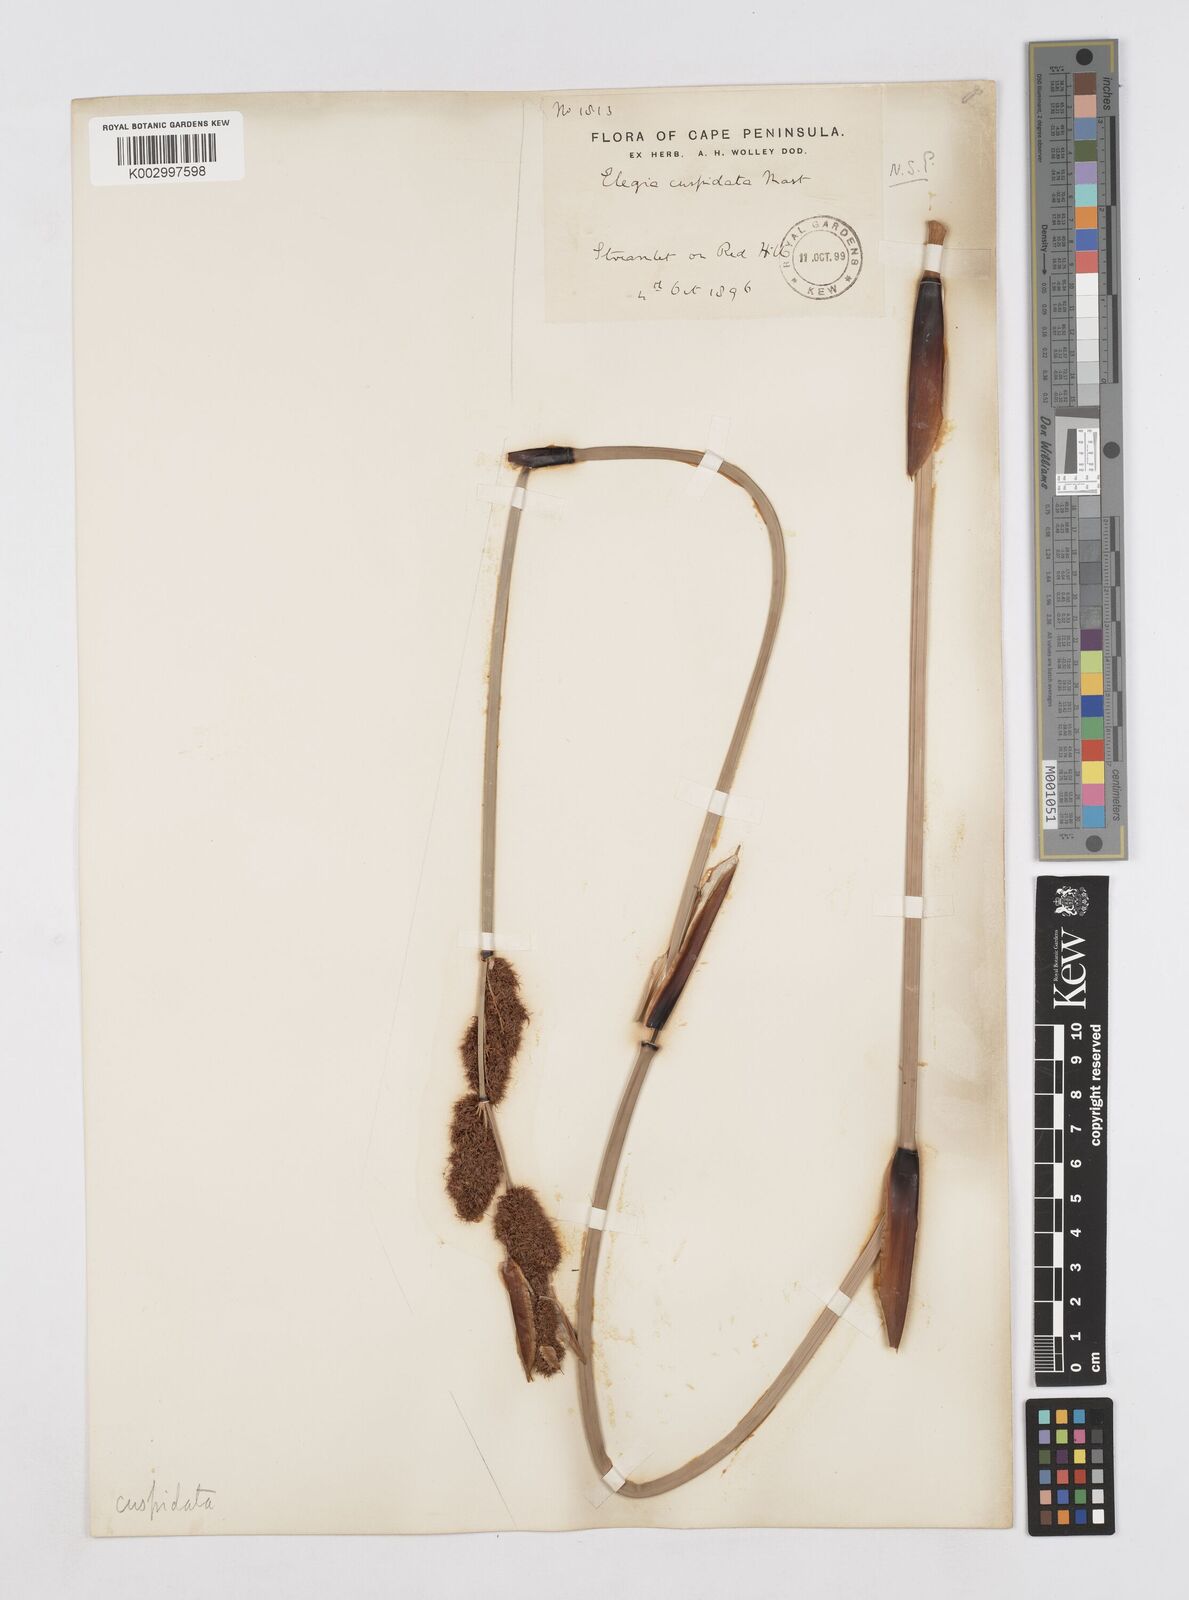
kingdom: Plantae
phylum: Tracheophyta
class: Liliopsida
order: Poales
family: Restionaceae
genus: Elegia
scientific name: Elegia cuspidata
